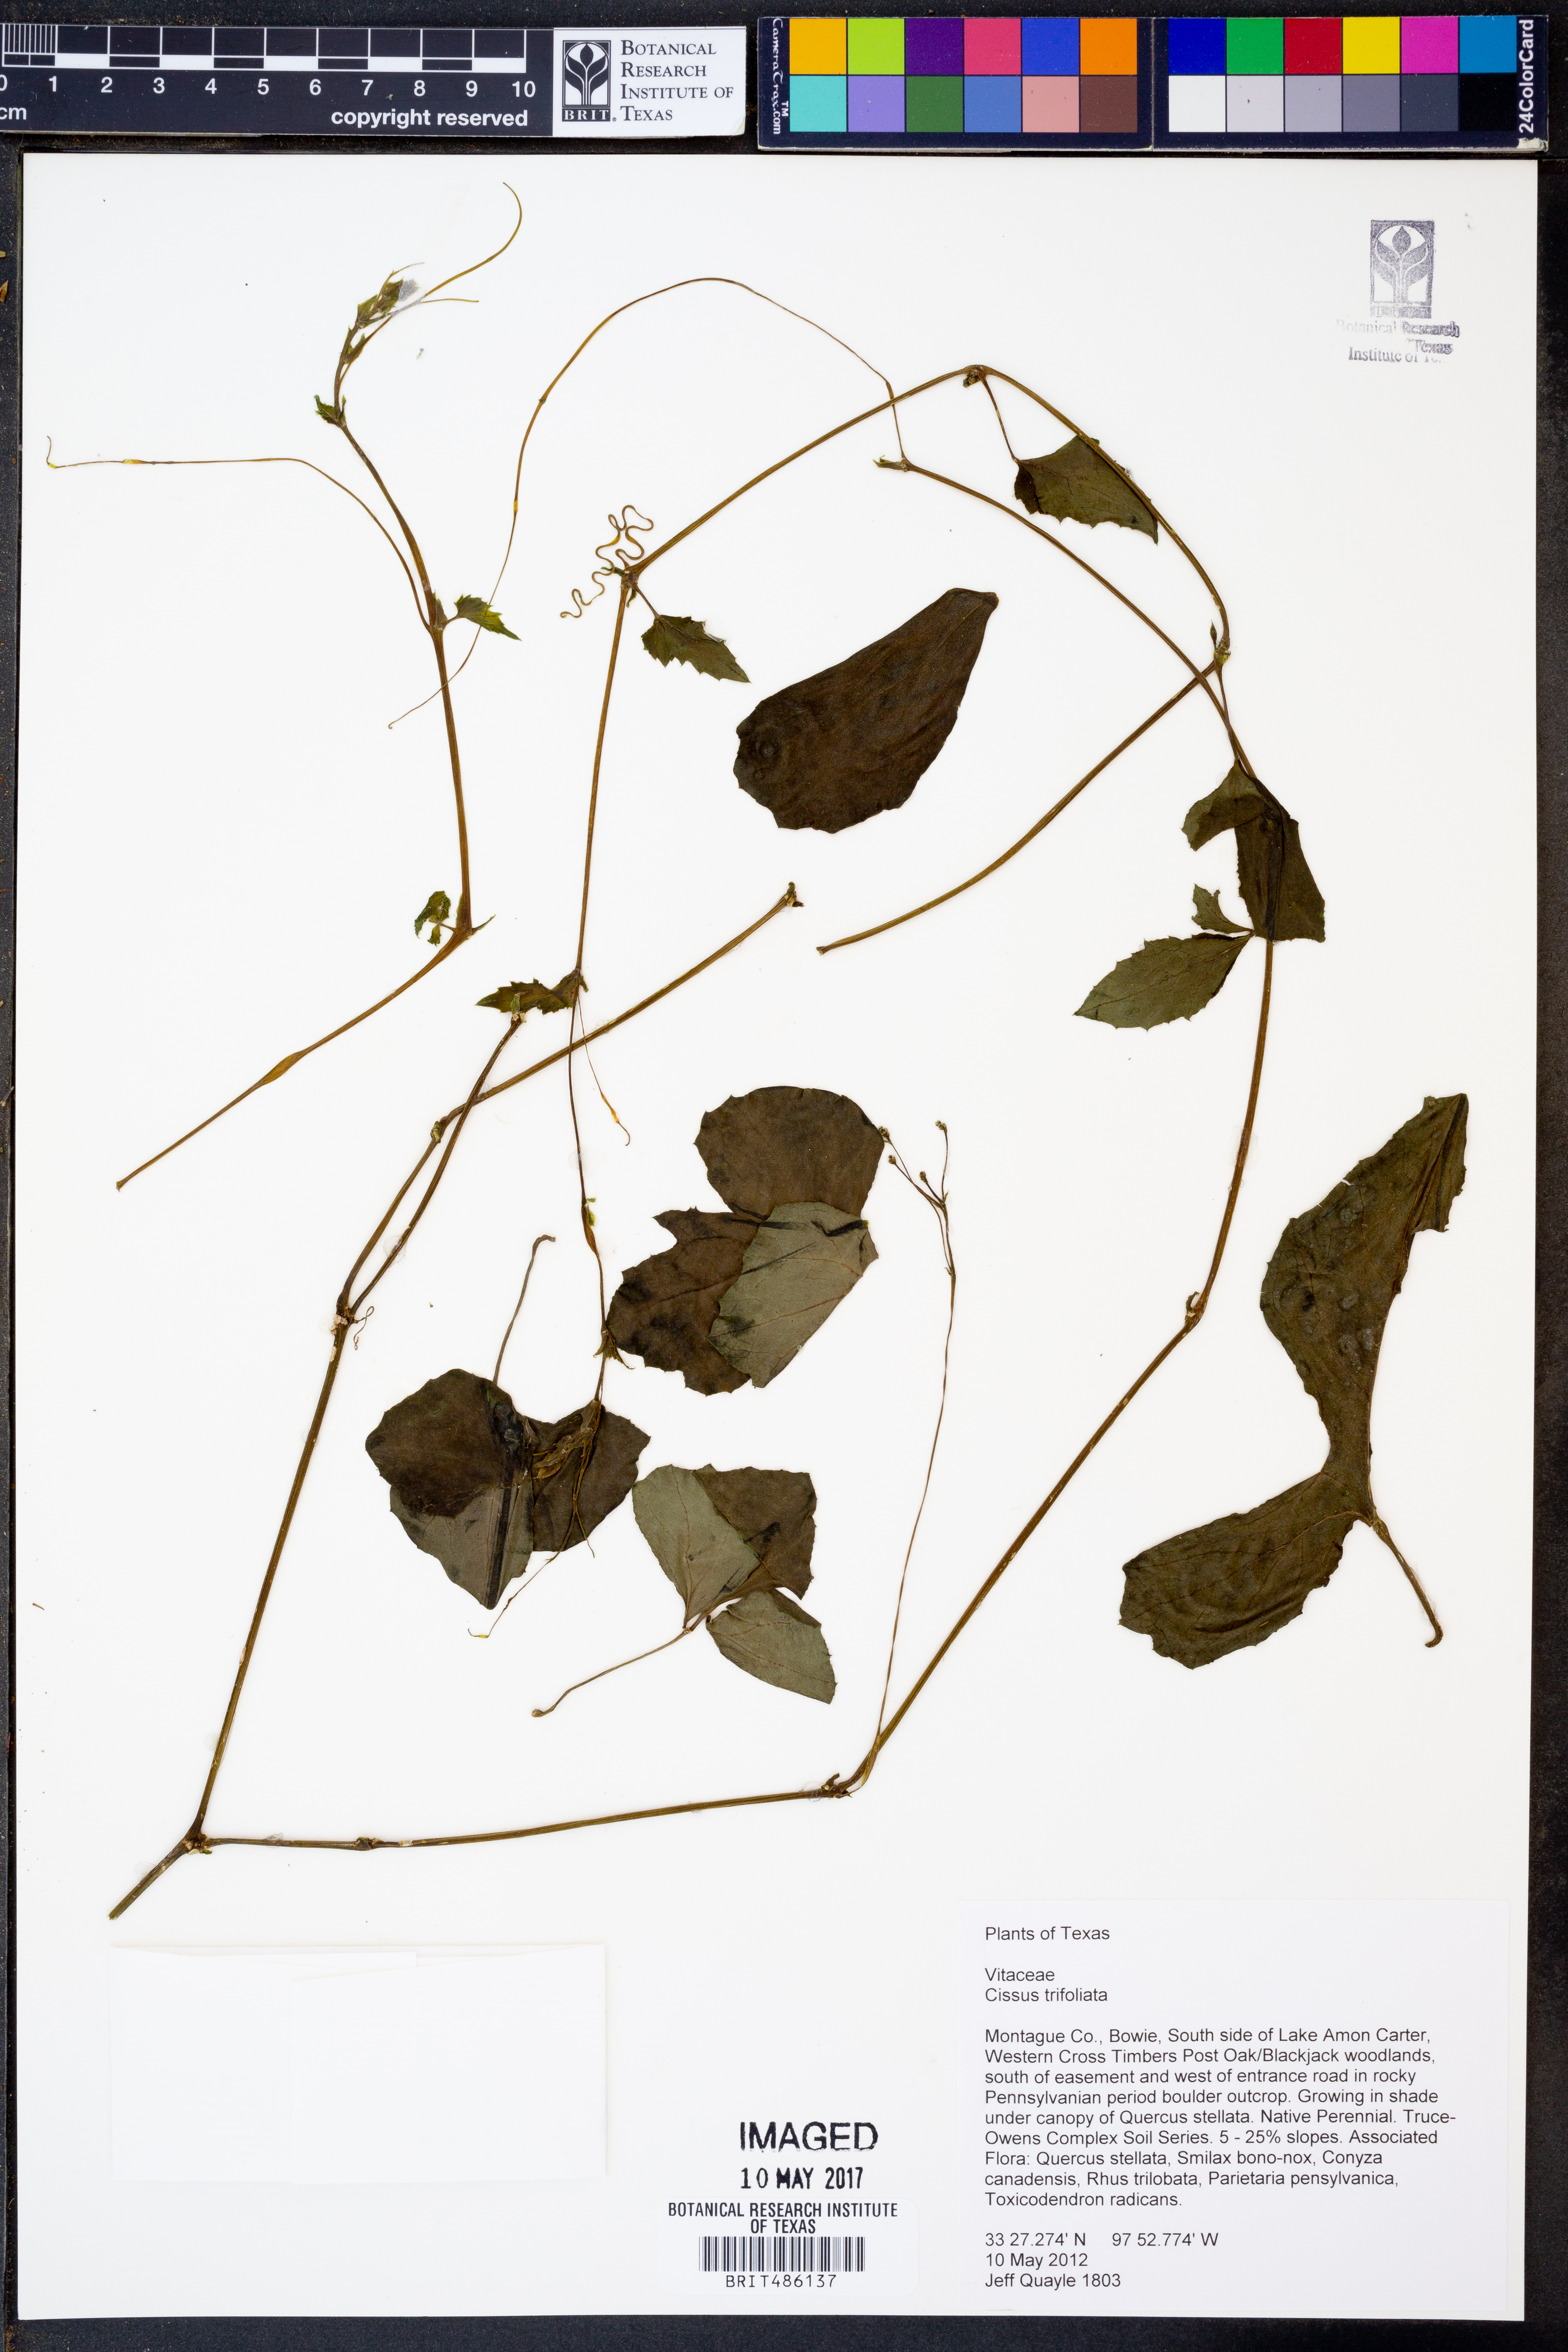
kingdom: Plantae
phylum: Tracheophyta
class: Magnoliopsida
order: Vitales
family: Vitaceae
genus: Cissus
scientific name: Cissus trifoliata
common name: Vine-sorrel
